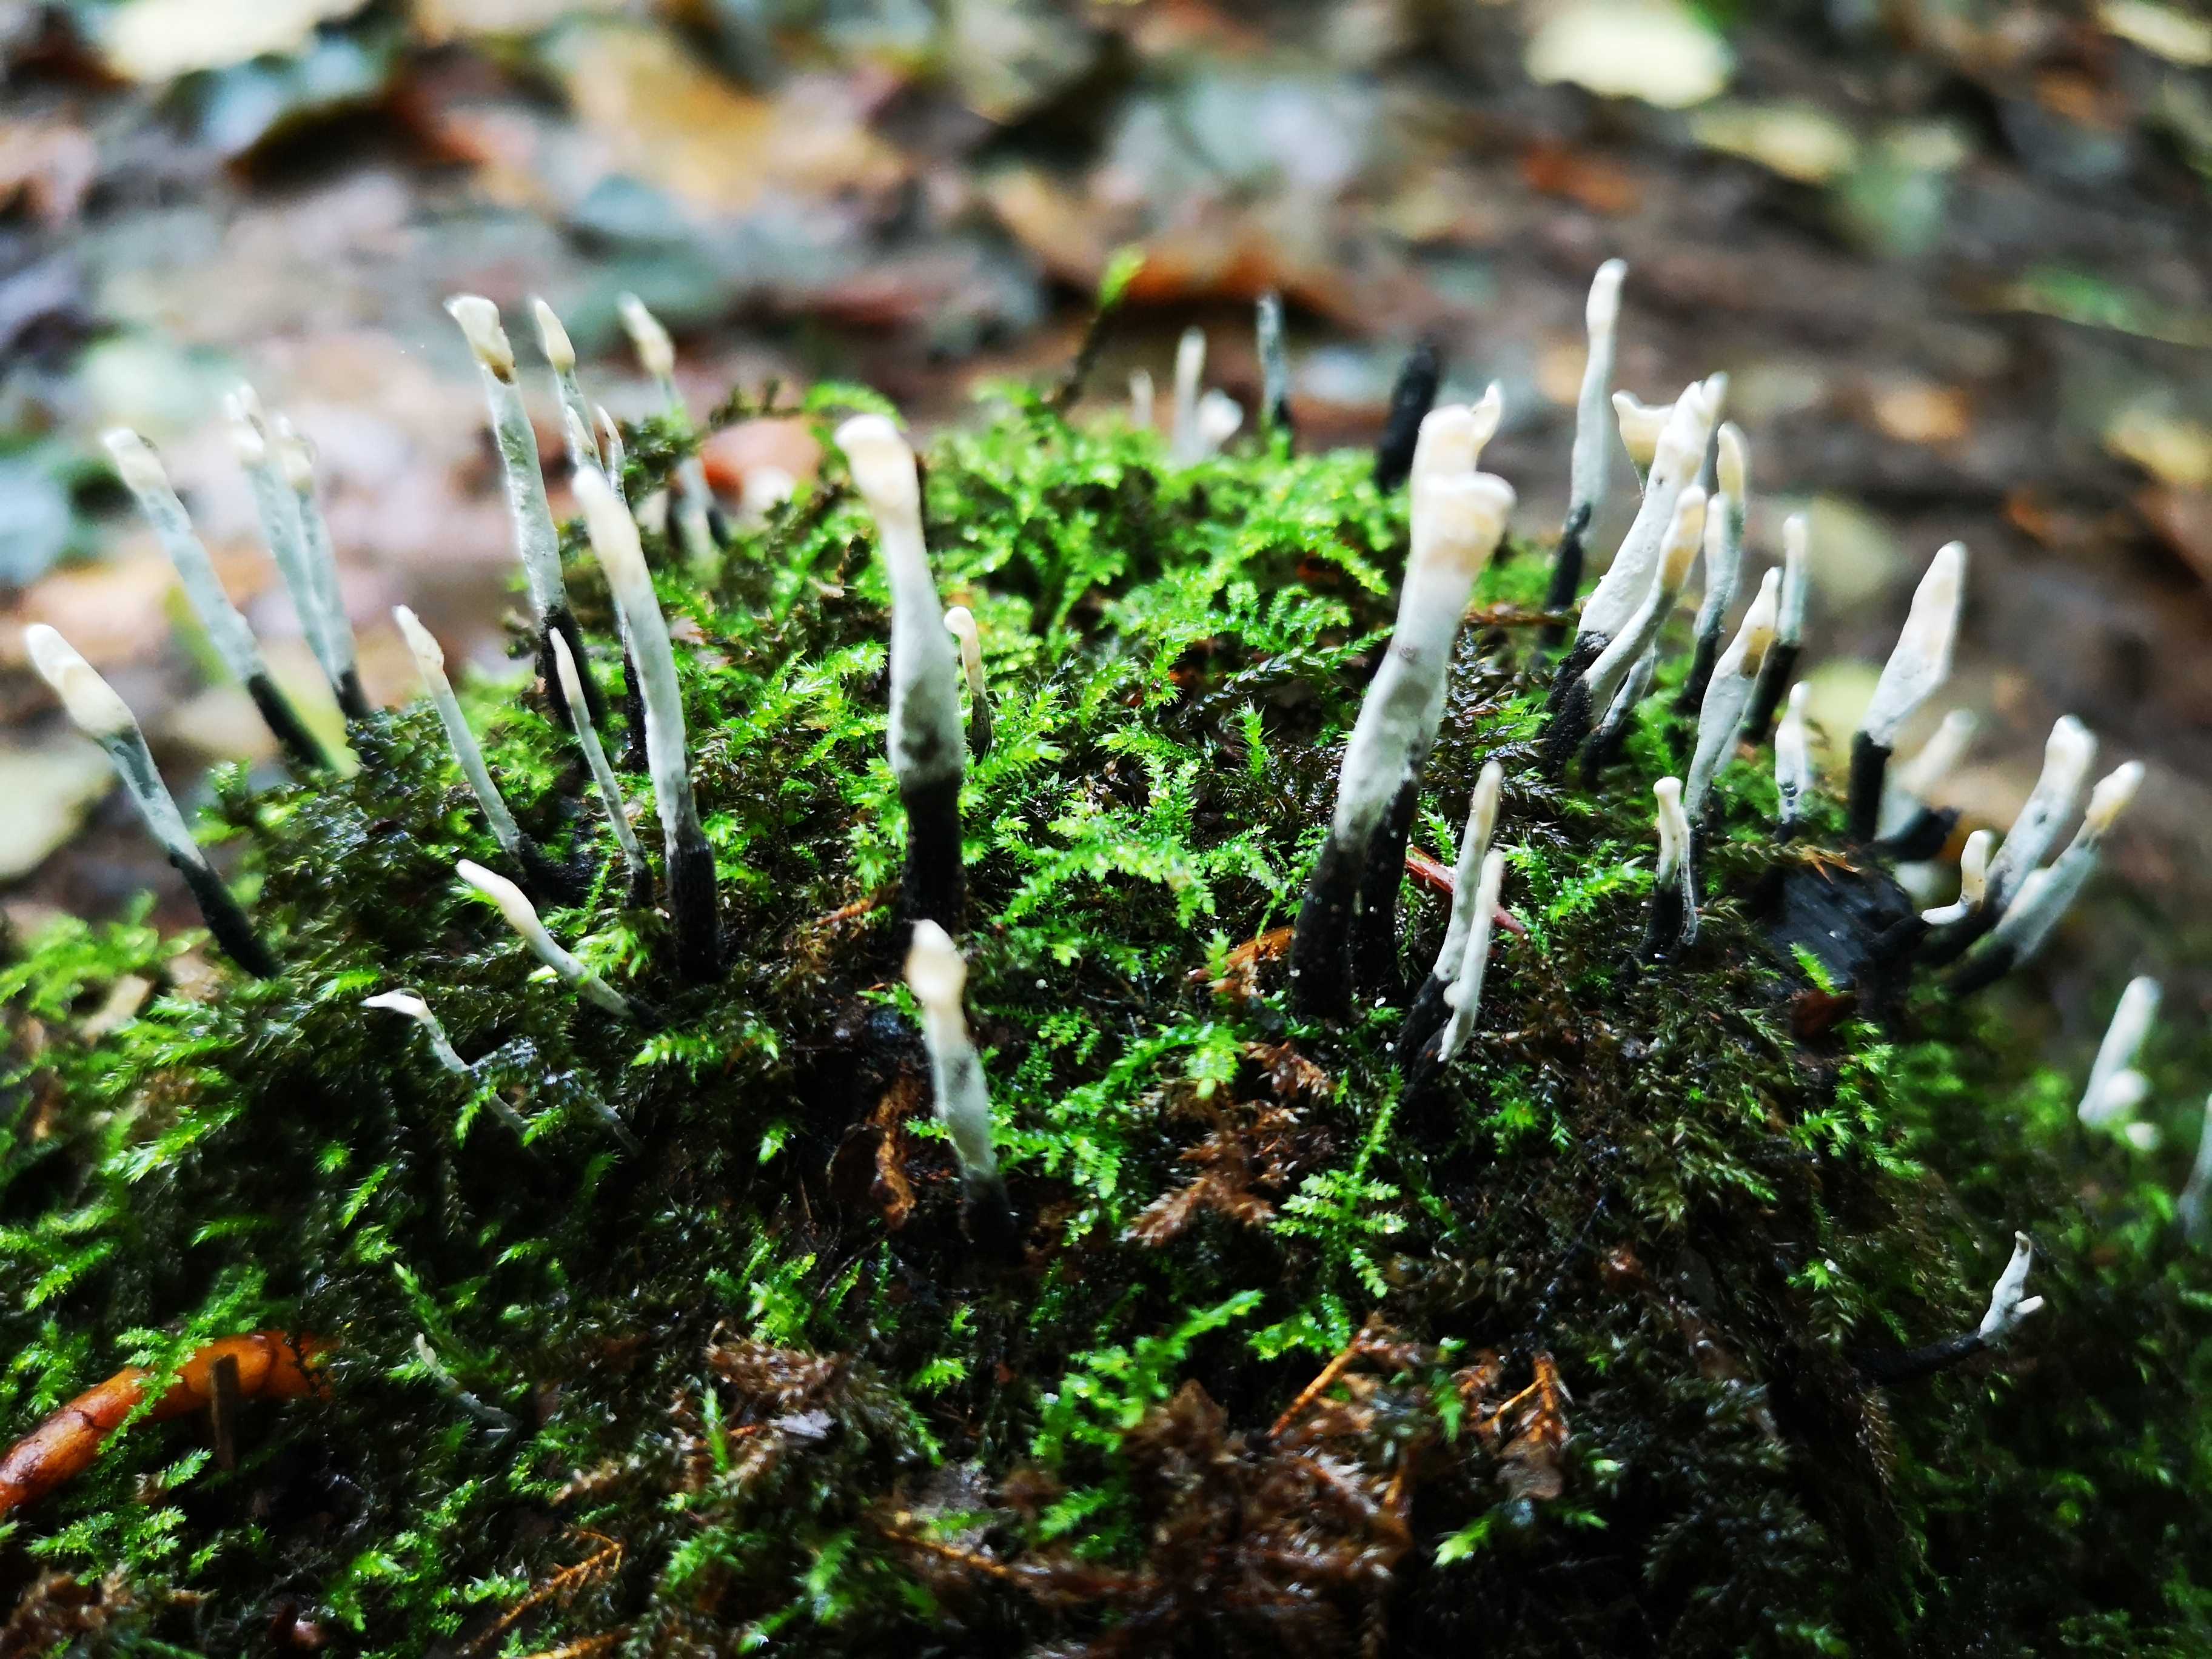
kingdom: Fungi
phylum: Ascomycota
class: Sordariomycetes
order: Xylariales
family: Xylariaceae
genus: Xylaria
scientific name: Xylaria hypoxylon
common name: grenet stødsvamp
